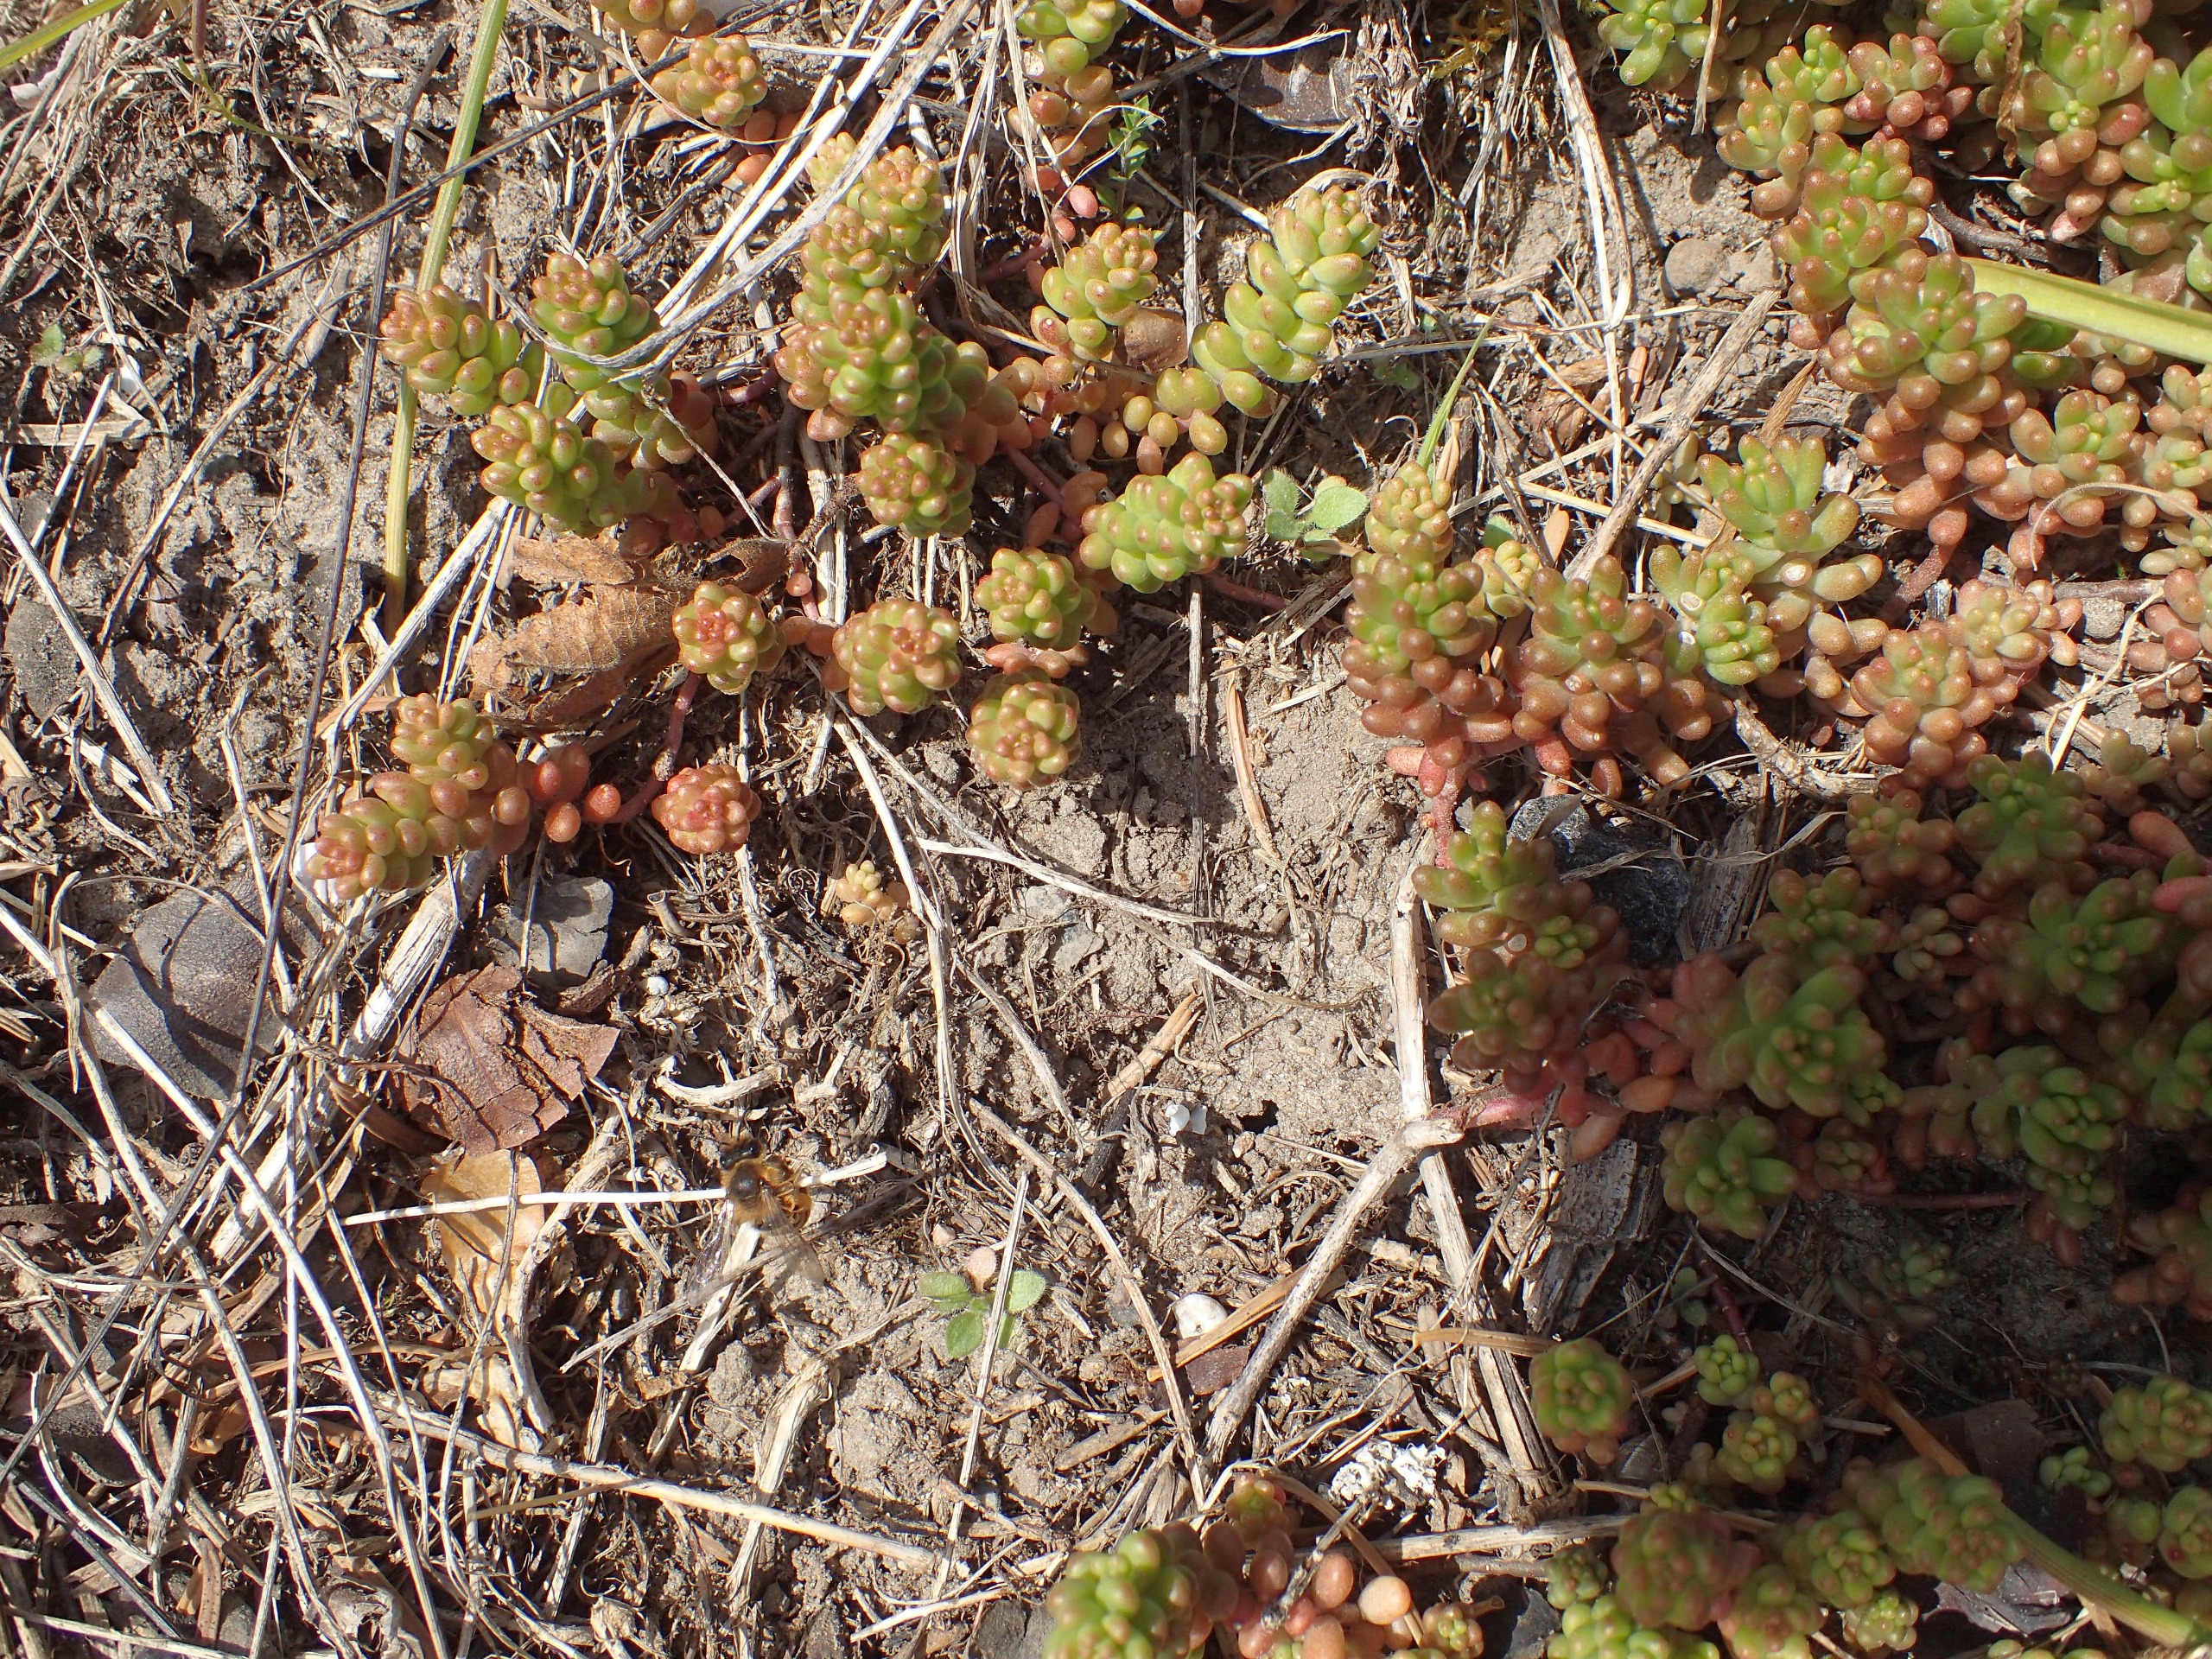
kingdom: Plantae
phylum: Tracheophyta
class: Magnoliopsida
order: Saxifragales
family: Crassulaceae
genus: Sedum
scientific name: Sedum album
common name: Hvid stenurt
